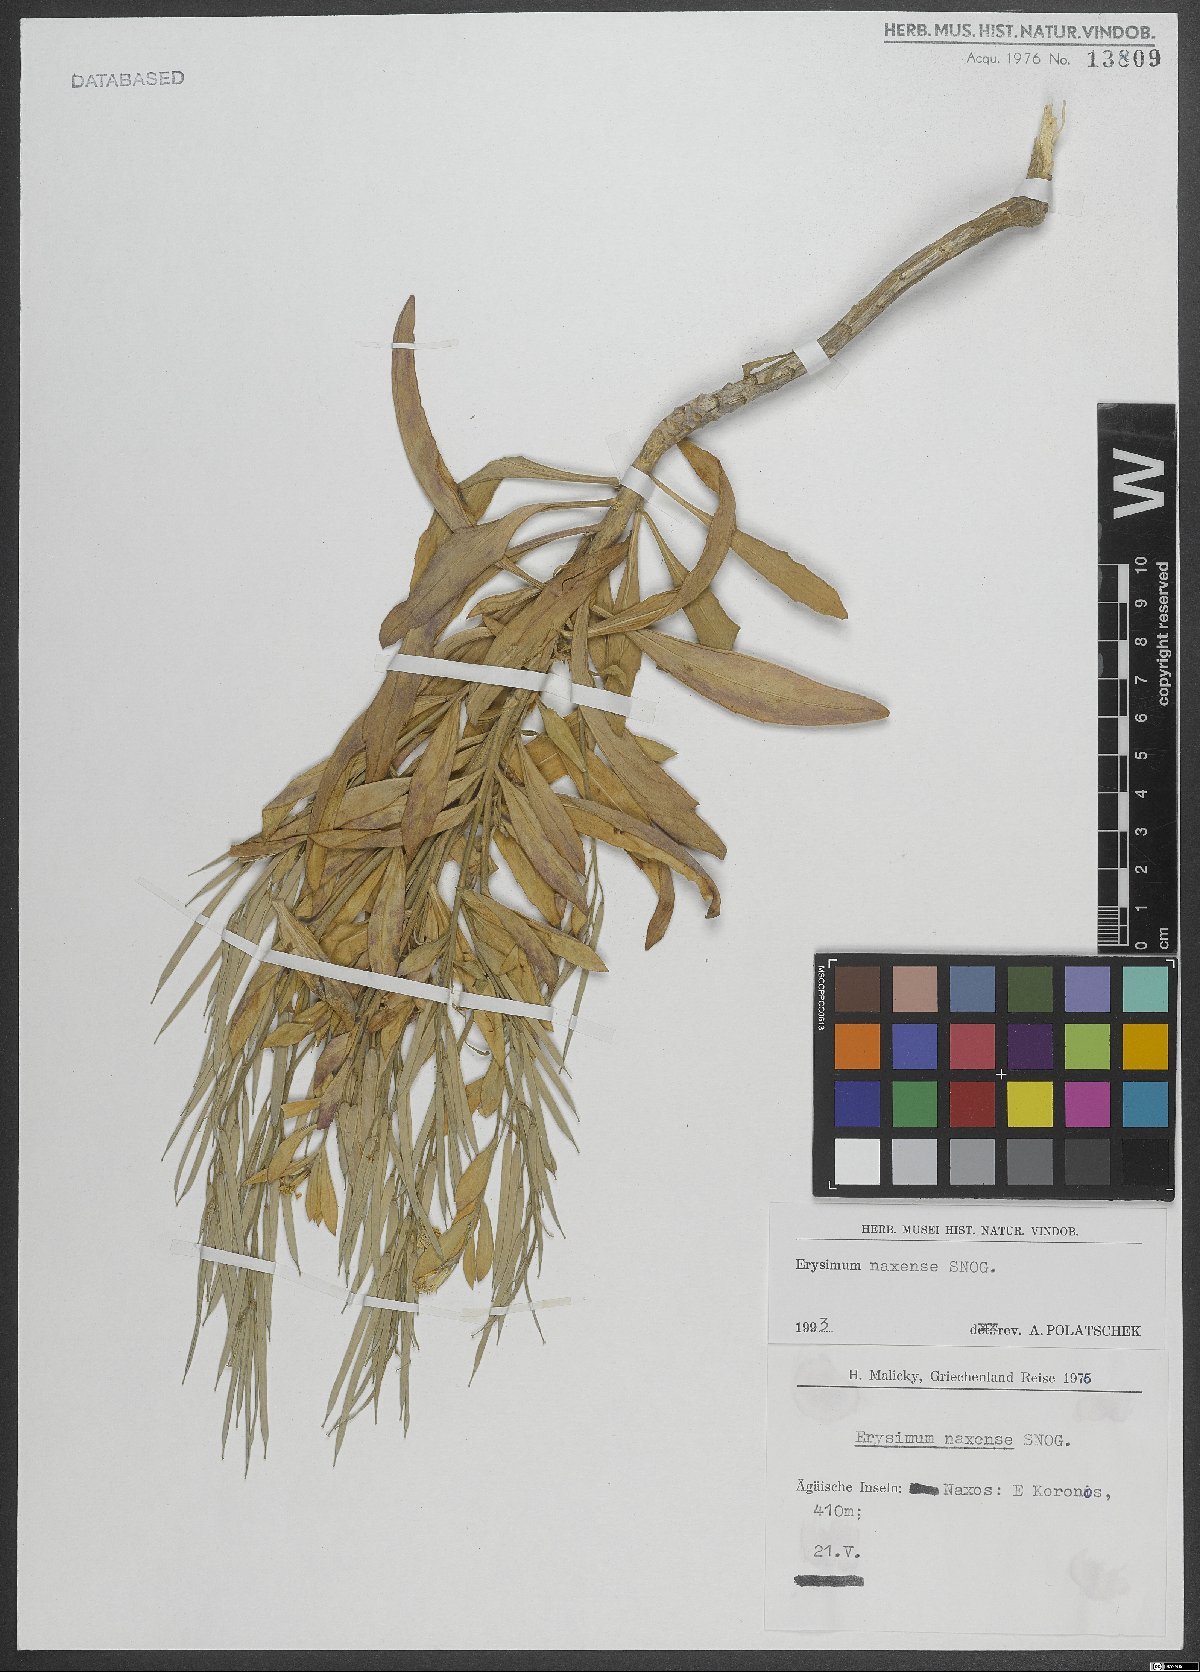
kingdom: Plantae
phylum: Tracheophyta
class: Magnoliopsida
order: Brassicales
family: Brassicaceae
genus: Erysimum
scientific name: Erysimum naxense
